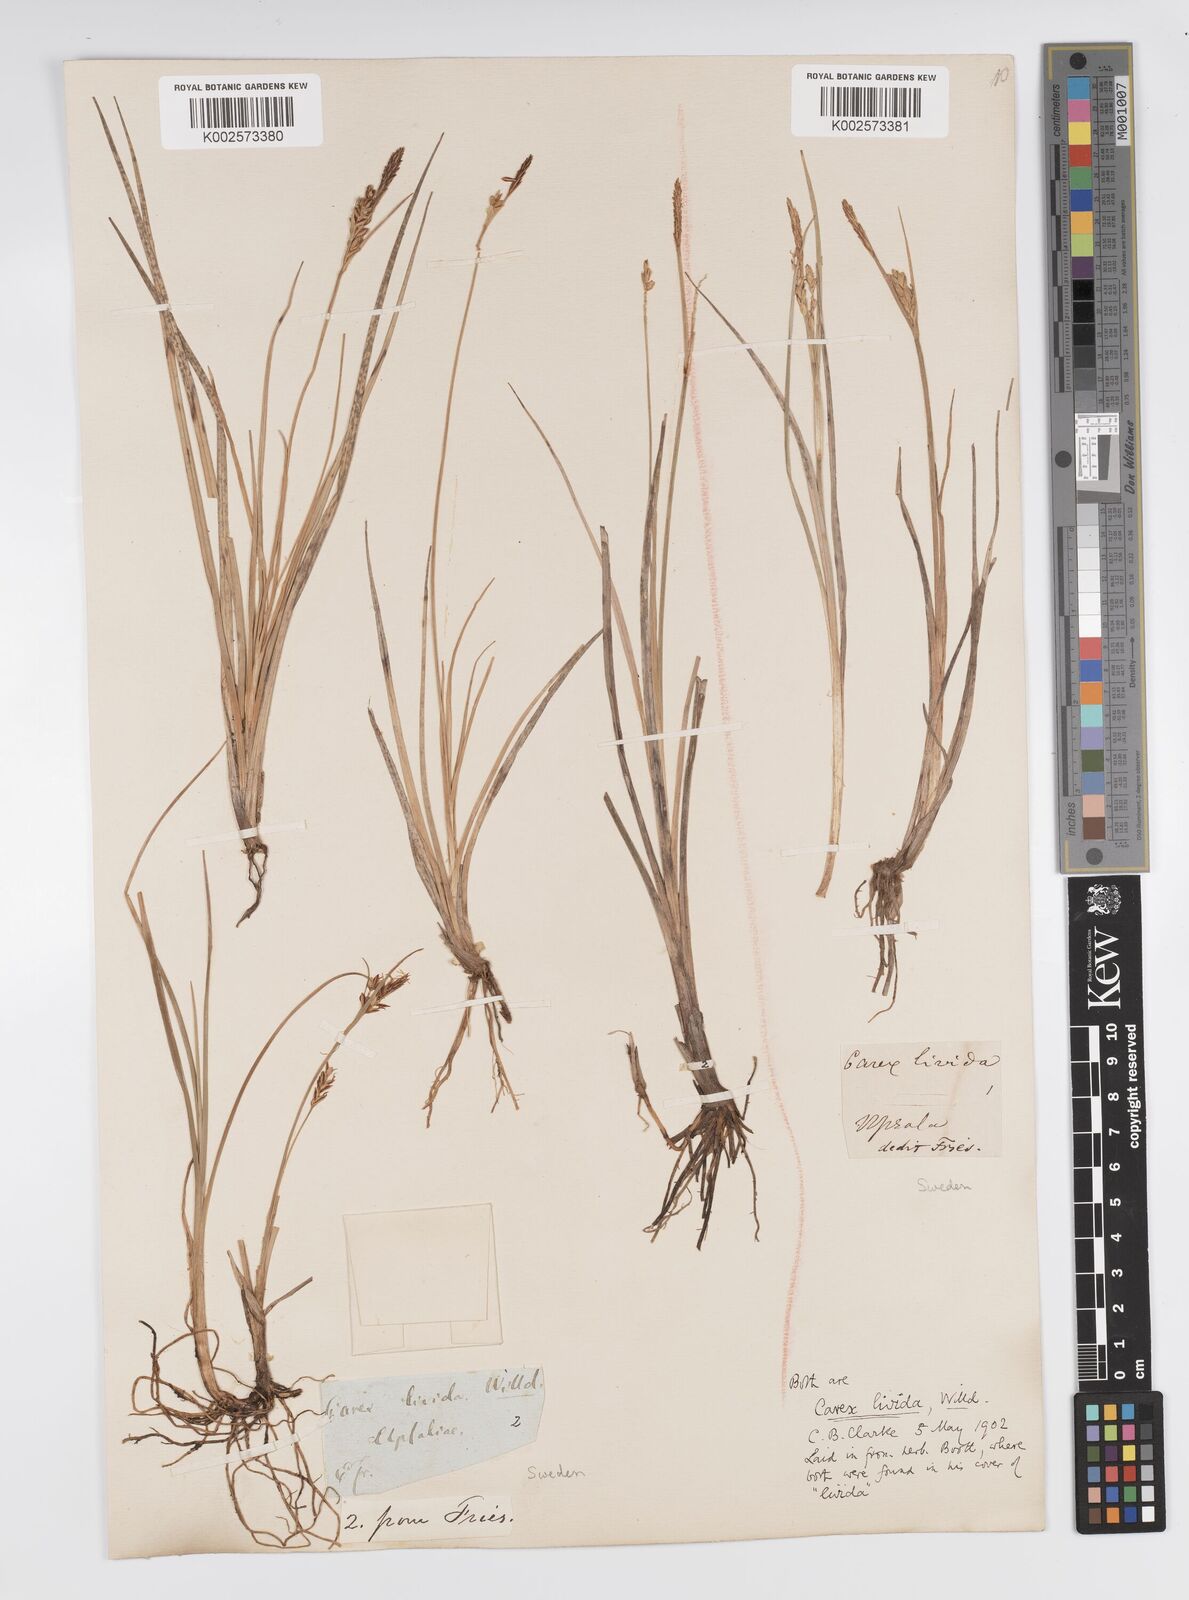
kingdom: Plantae
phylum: Tracheophyta
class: Liliopsida
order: Poales
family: Cyperaceae
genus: Carex
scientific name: Carex livida
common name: Livid sedge
